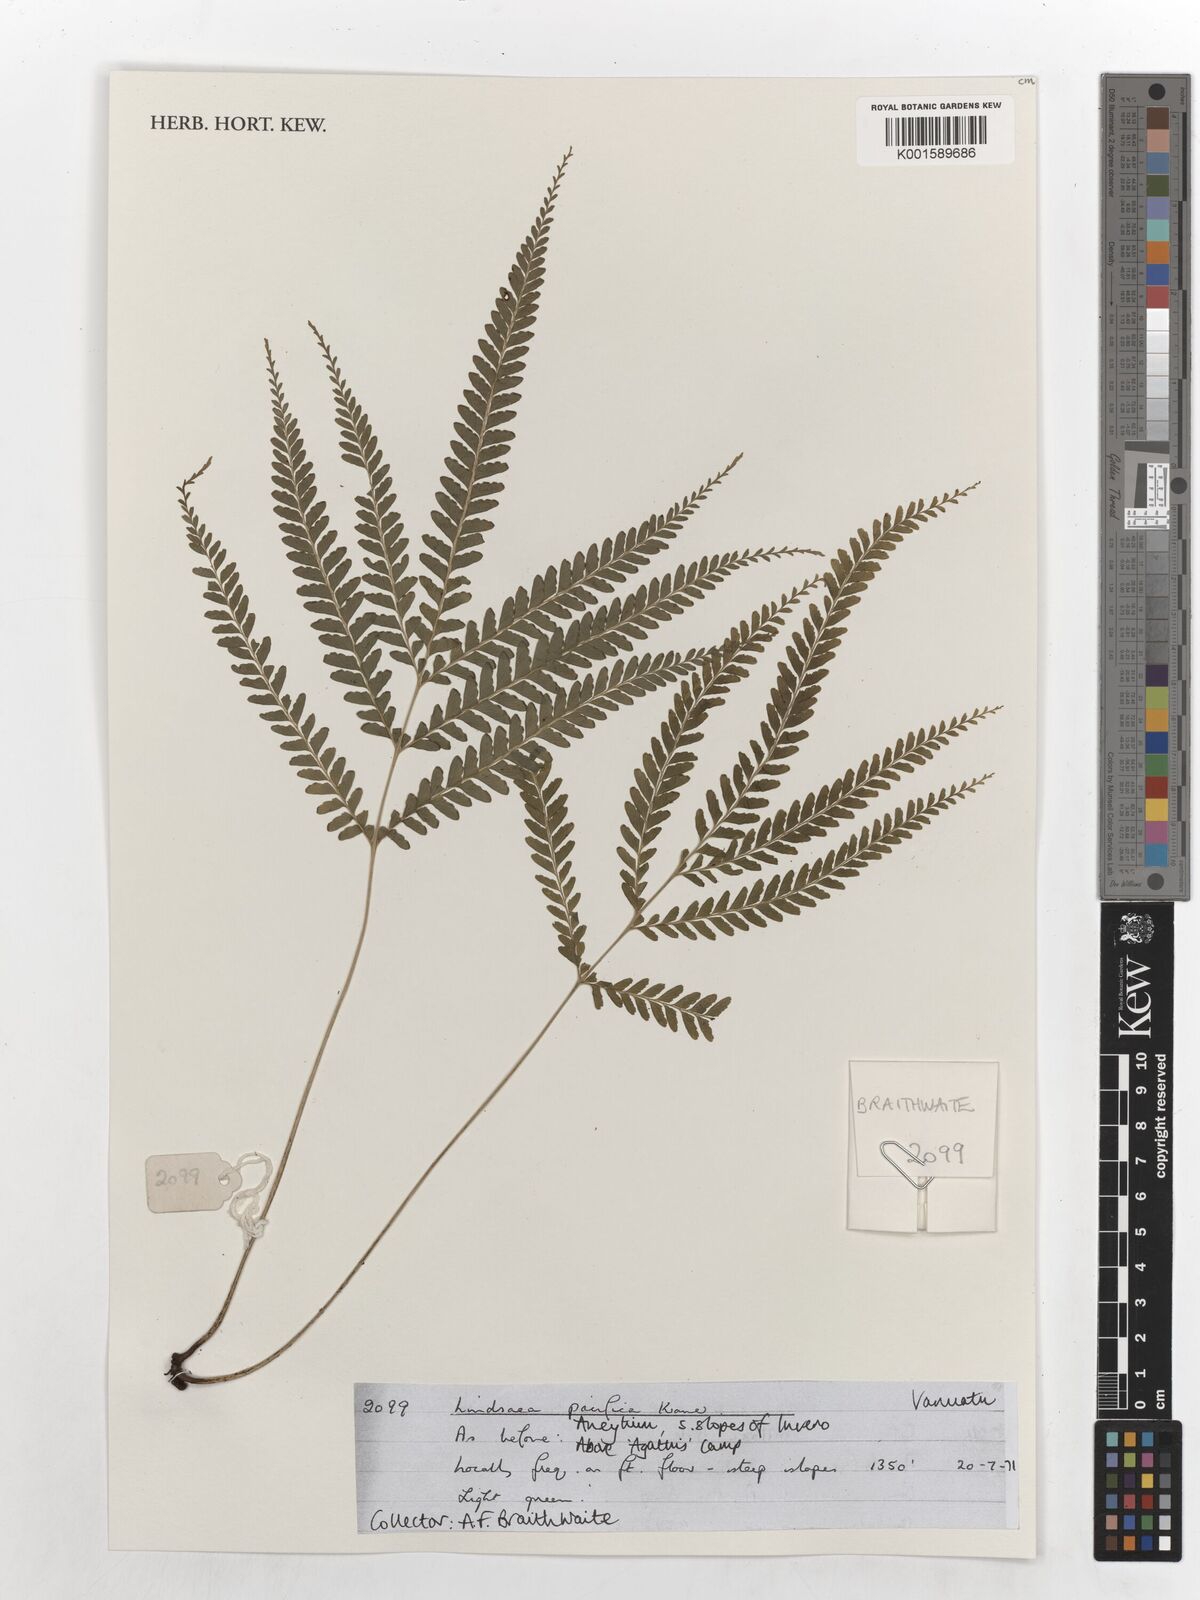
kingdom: Plantae
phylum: Tracheophyta
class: Polypodiopsida
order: Polypodiales
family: Lindsaeaceae
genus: Lindsaea
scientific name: Lindsaea pacifica
